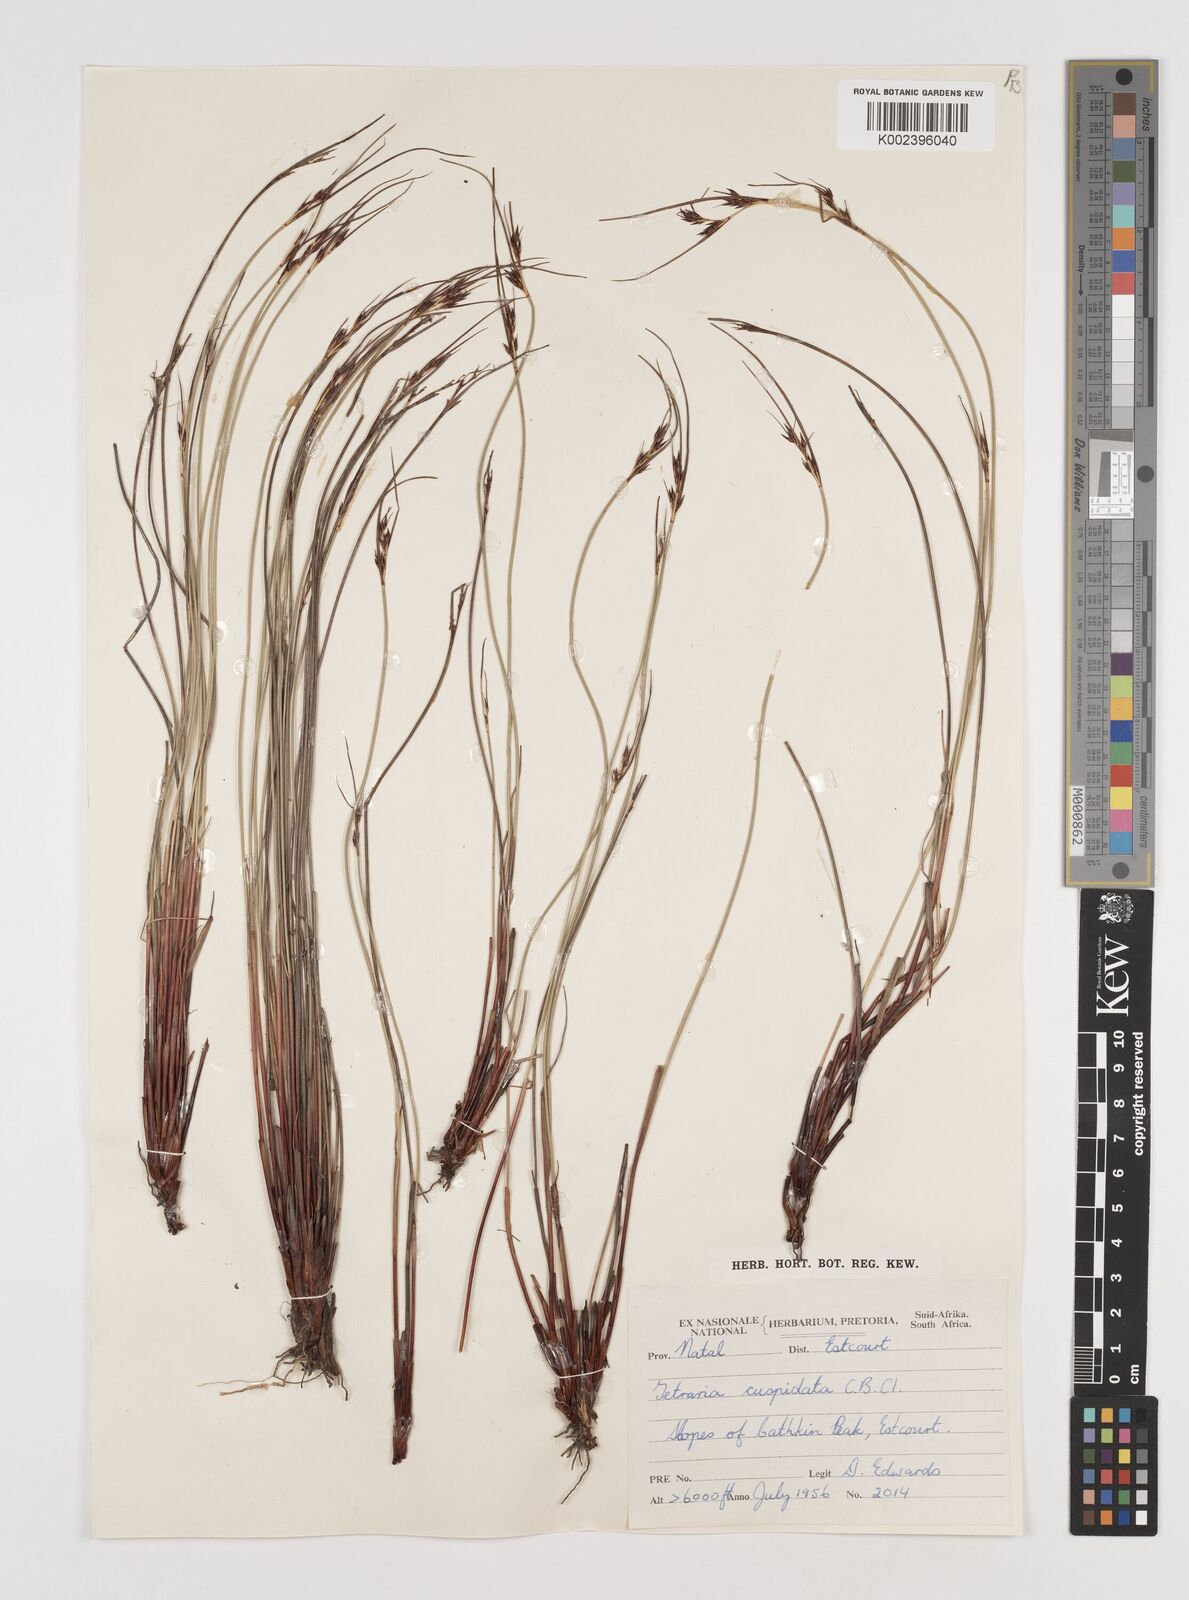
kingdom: Plantae
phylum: Tracheophyta
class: Liliopsida
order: Poales
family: Cyperaceae
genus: Schoenus
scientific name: Schoenus cuspidatus
